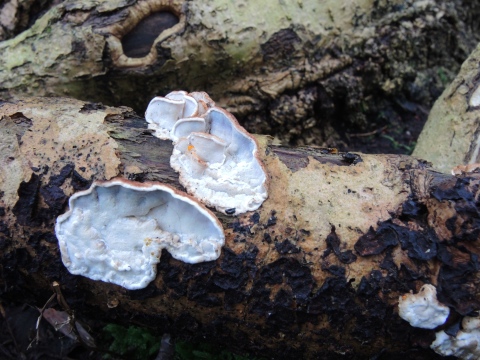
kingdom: Fungi
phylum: Basidiomycota
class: Agaricomycetes
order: Polyporales
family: Incrustoporiaceae
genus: Skeletocutis
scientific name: Skeletocutis nemoralis
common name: stor krystalporesvamp
